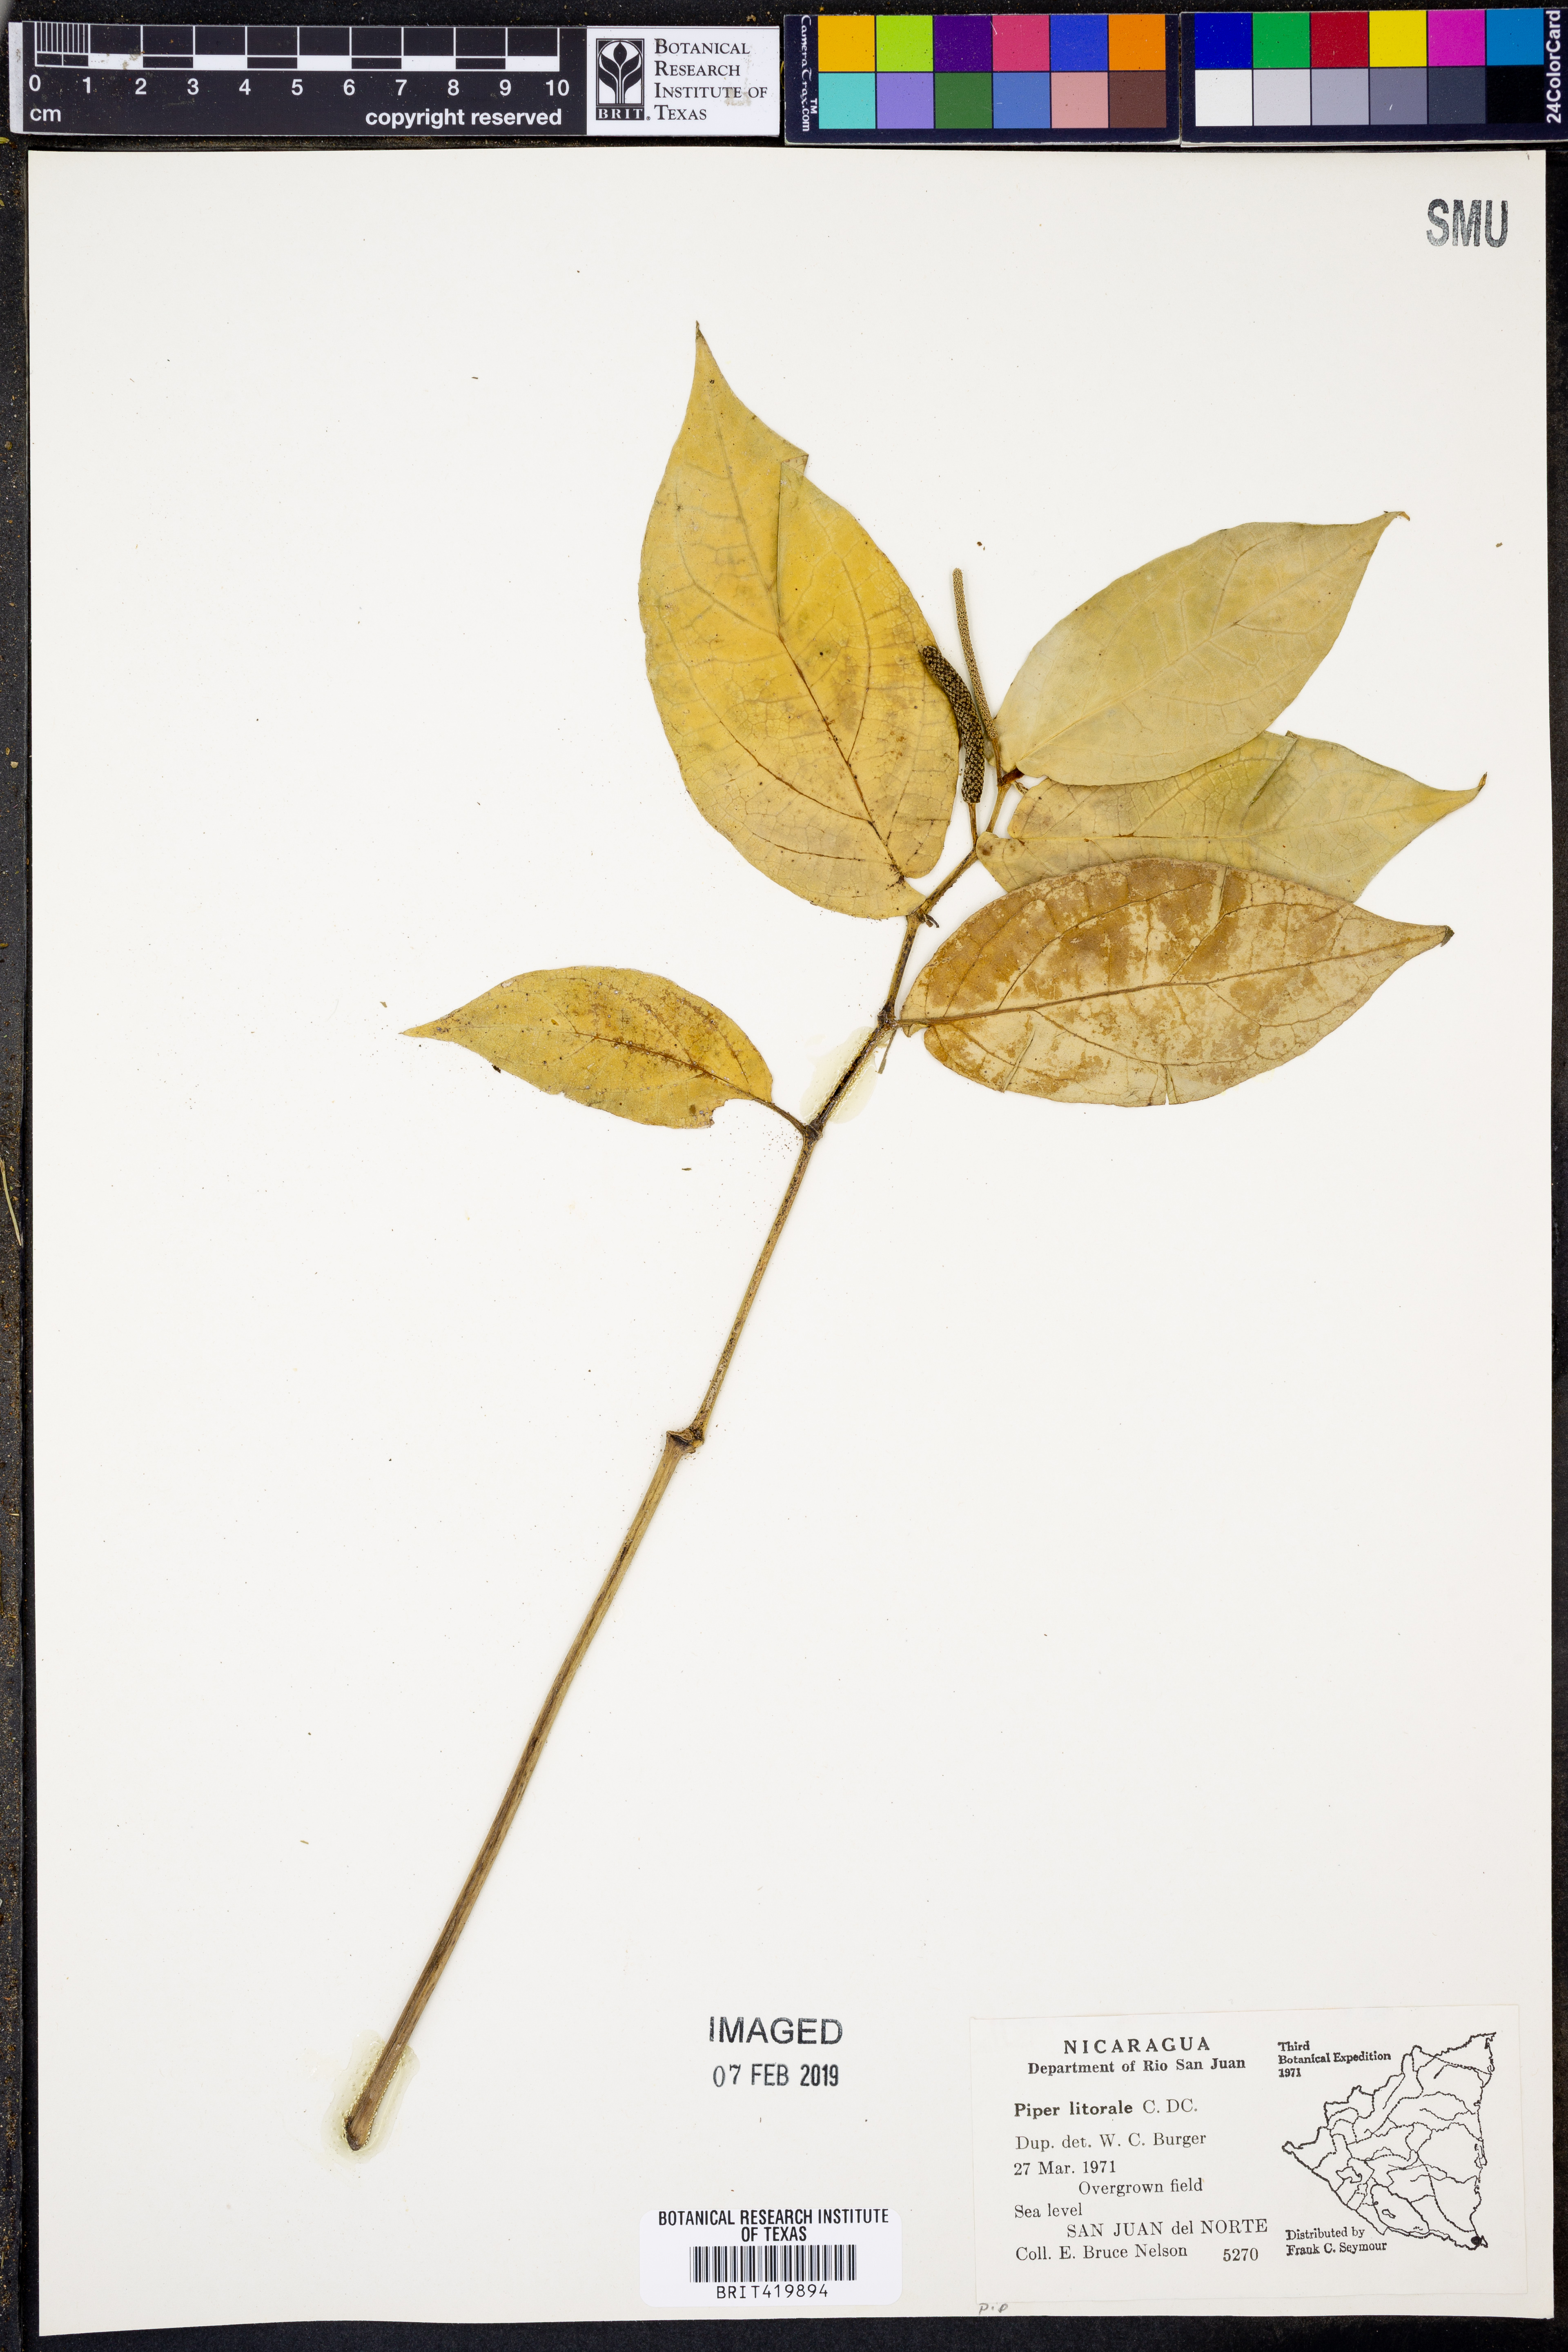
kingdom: Plantae
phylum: Tracheophyta
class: Magnoliopsida
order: Piperales
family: Piperaceae
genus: Piper
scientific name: Piper littorale
